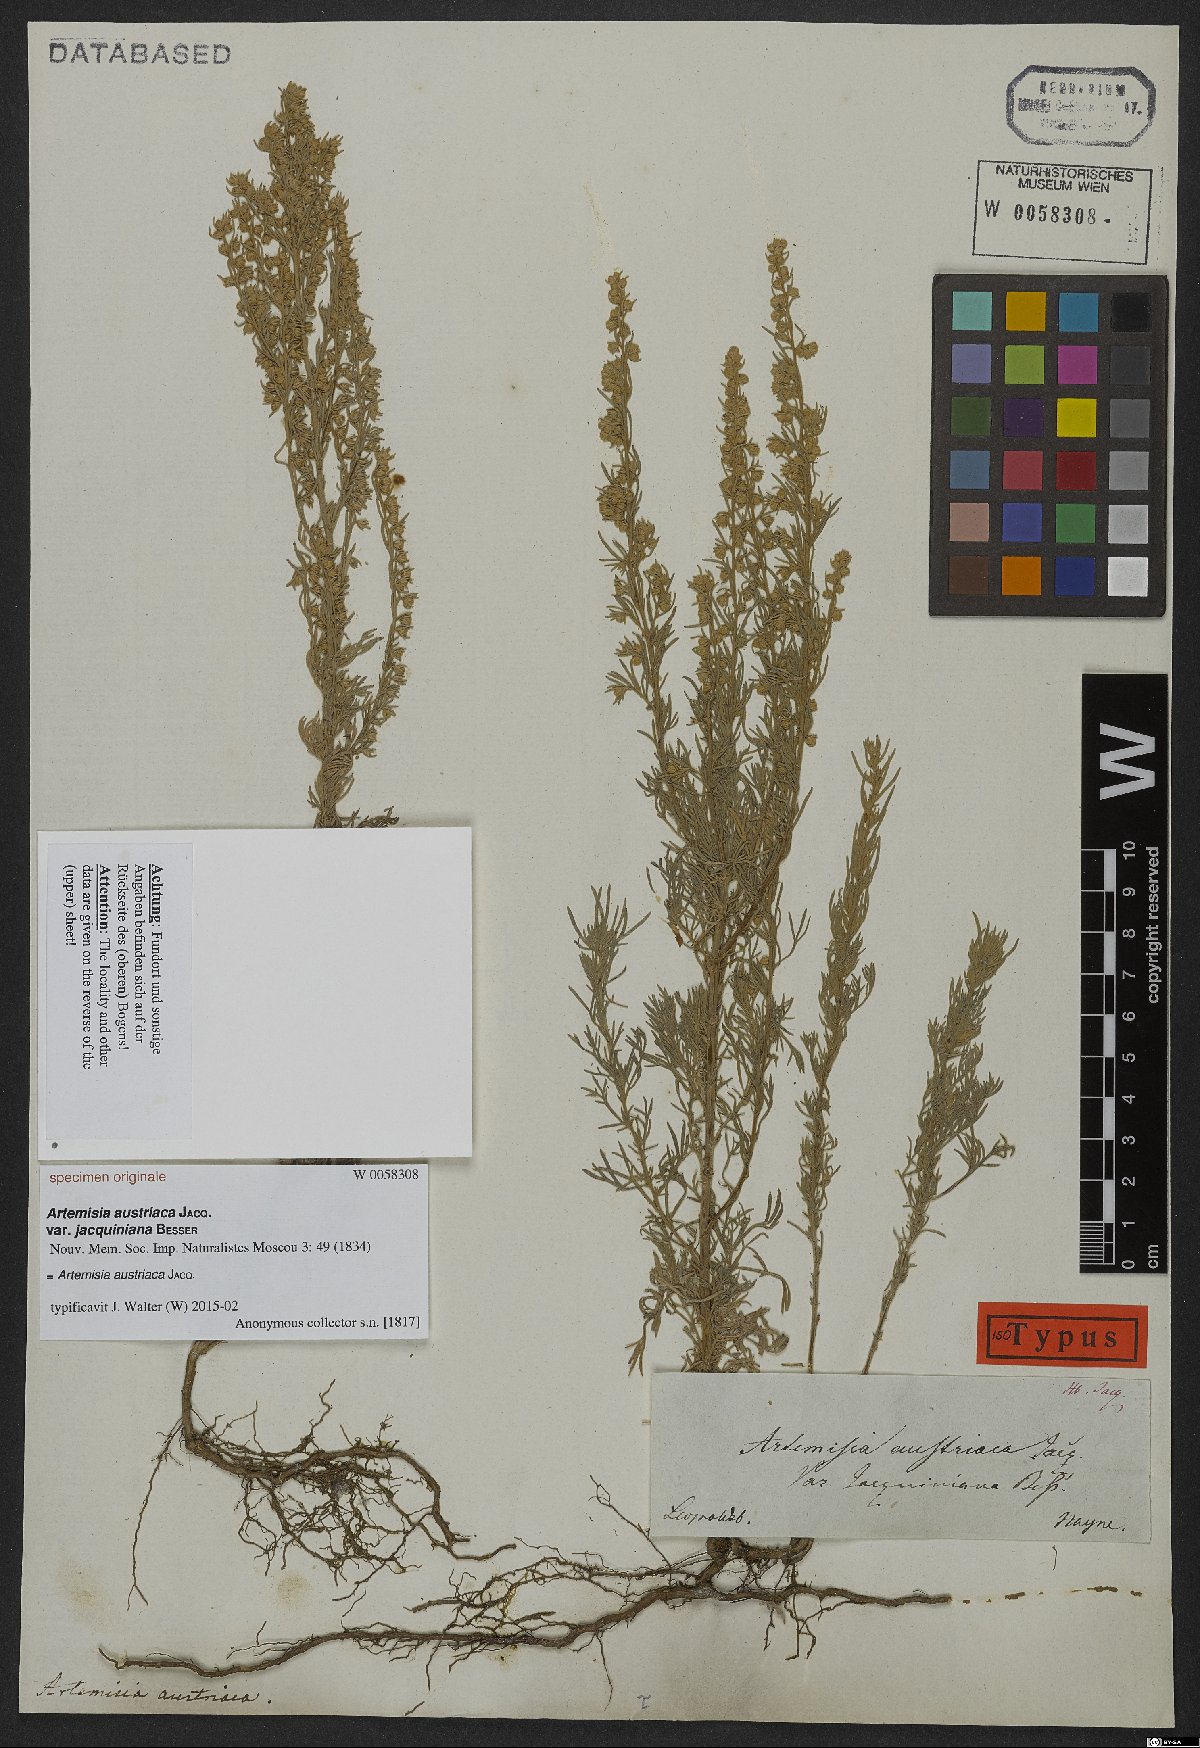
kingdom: Plantae
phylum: Tracheophyta
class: Magnoliopsida
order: Asterales
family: Asteraceae
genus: Artemisia
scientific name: Artemisia austriaca
